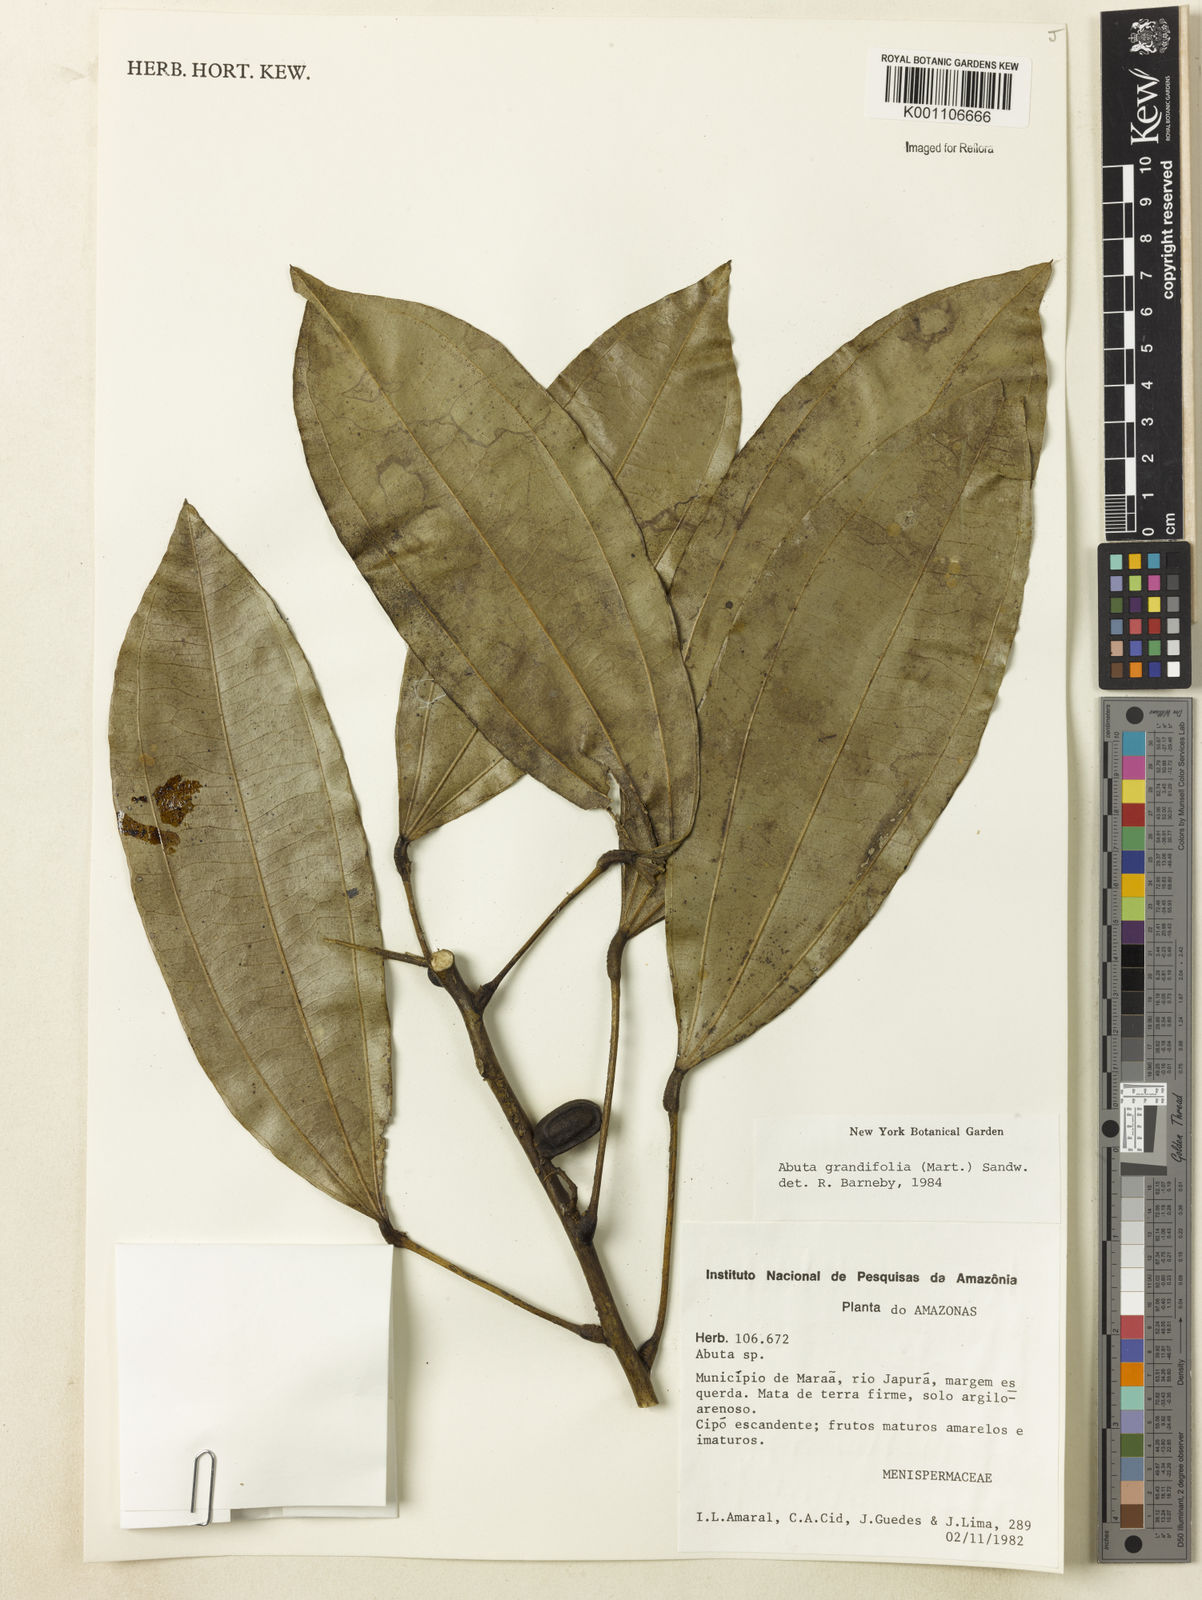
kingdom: Plantae
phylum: Tracheophyta
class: Magnoliopsida
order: Ranunculales
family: Menispermaceae
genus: Abuta
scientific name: Abuta grandifolia
